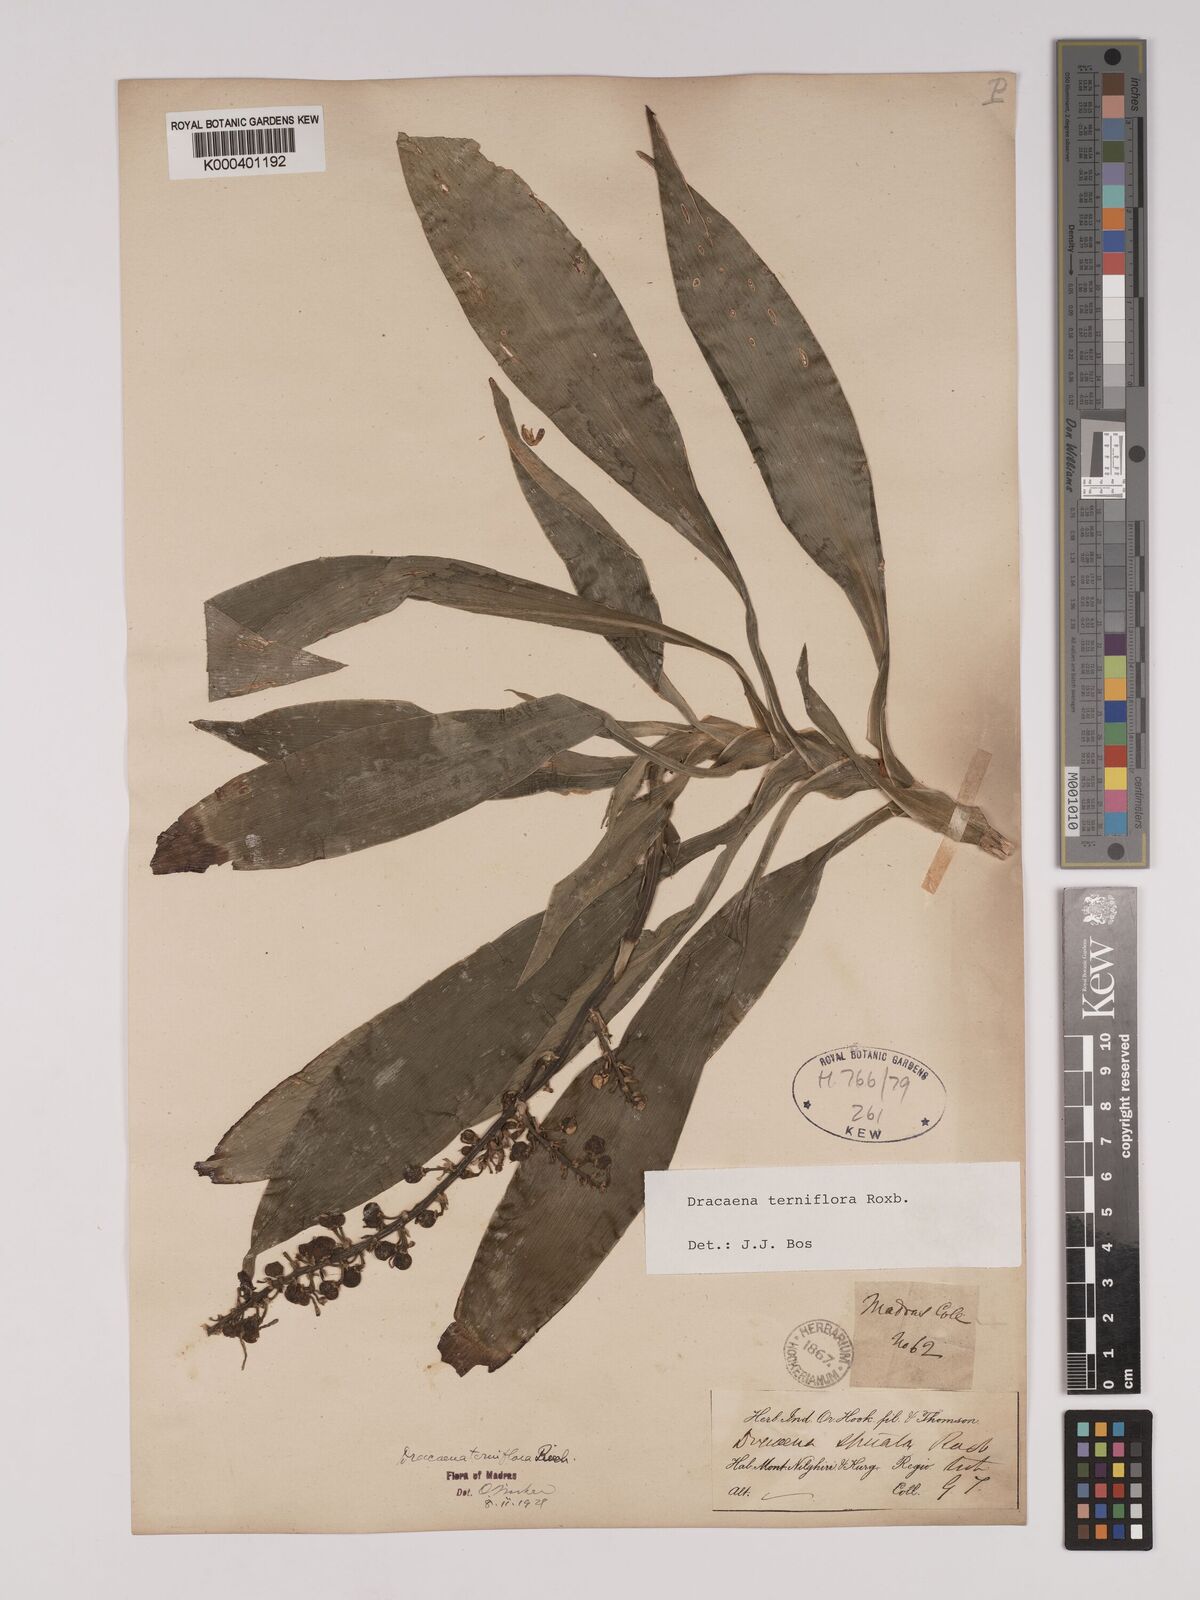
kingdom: Plantae
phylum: Tracheophyta
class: Liliopsida
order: Asparagales
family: Asparagaceae
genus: Dracaena
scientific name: Dracaena terniflora
